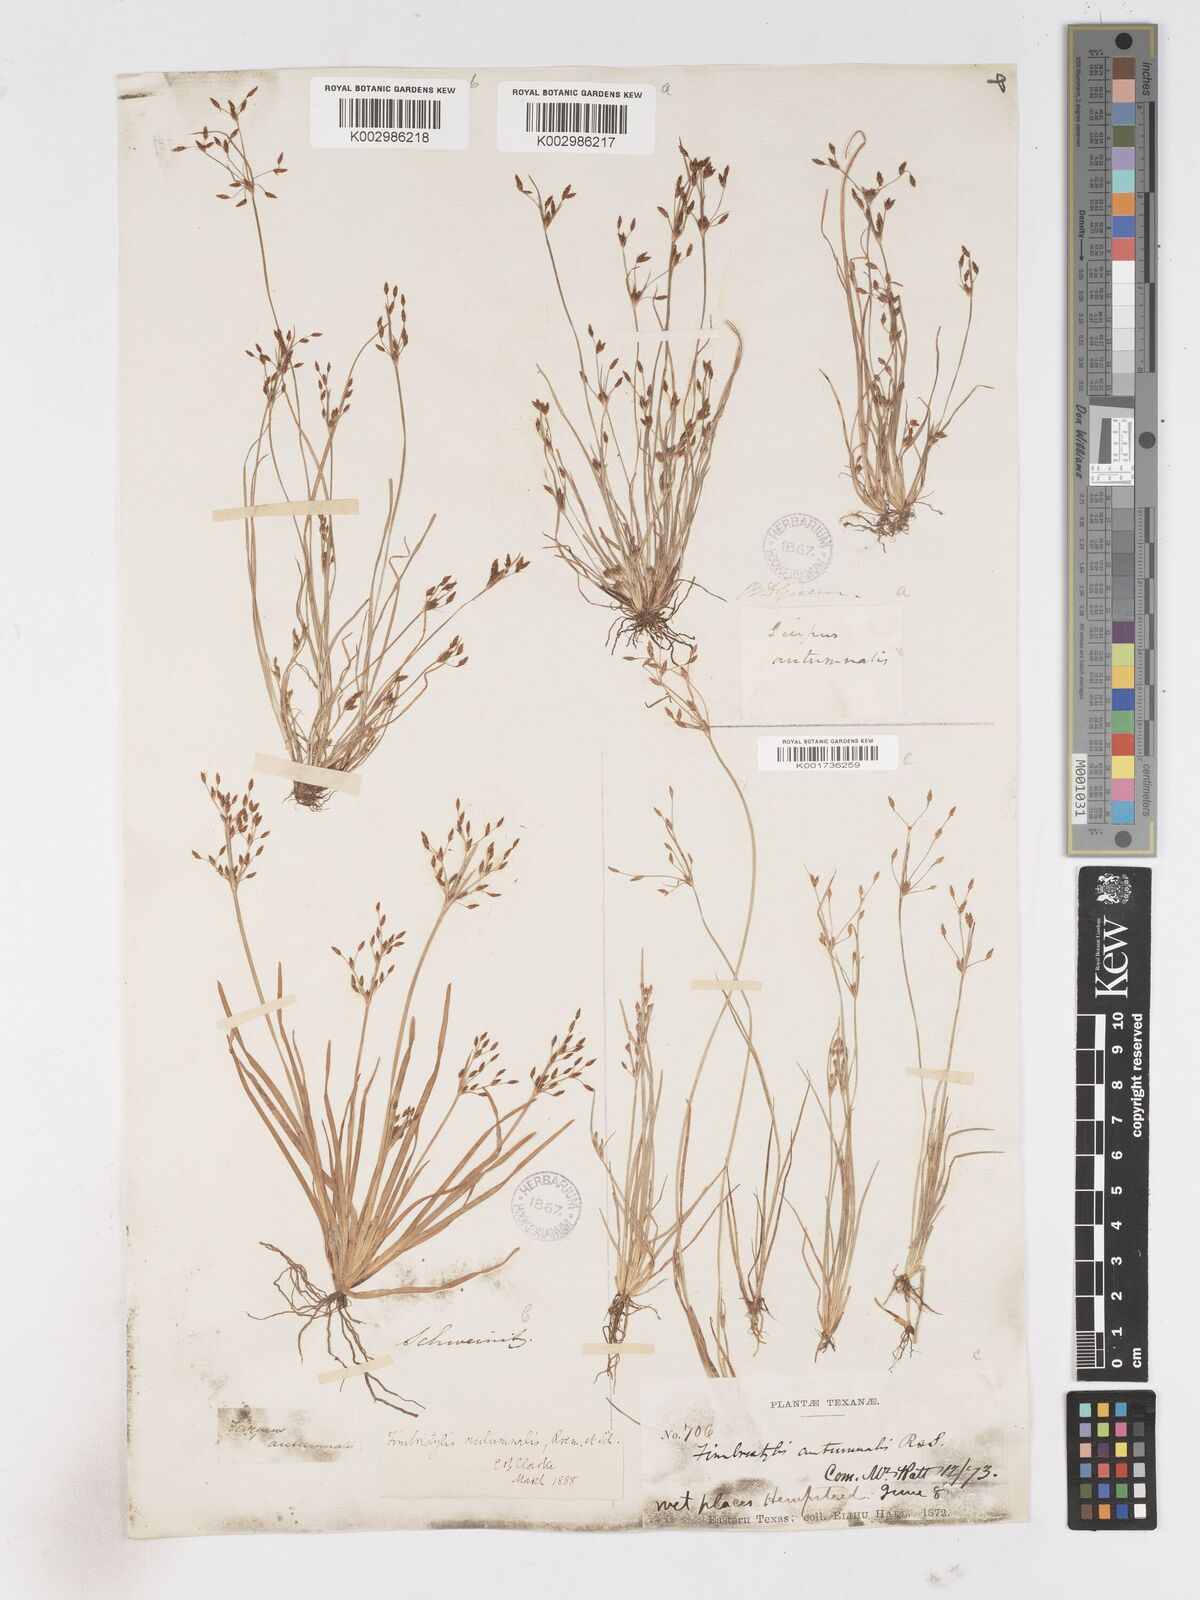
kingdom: Plantae
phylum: Tracheophyta
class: Liliopsida
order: Poales
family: Cyperaceae
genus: Fimbristylis
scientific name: Fimbristylis autumnalis
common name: Slender fimbristylis
